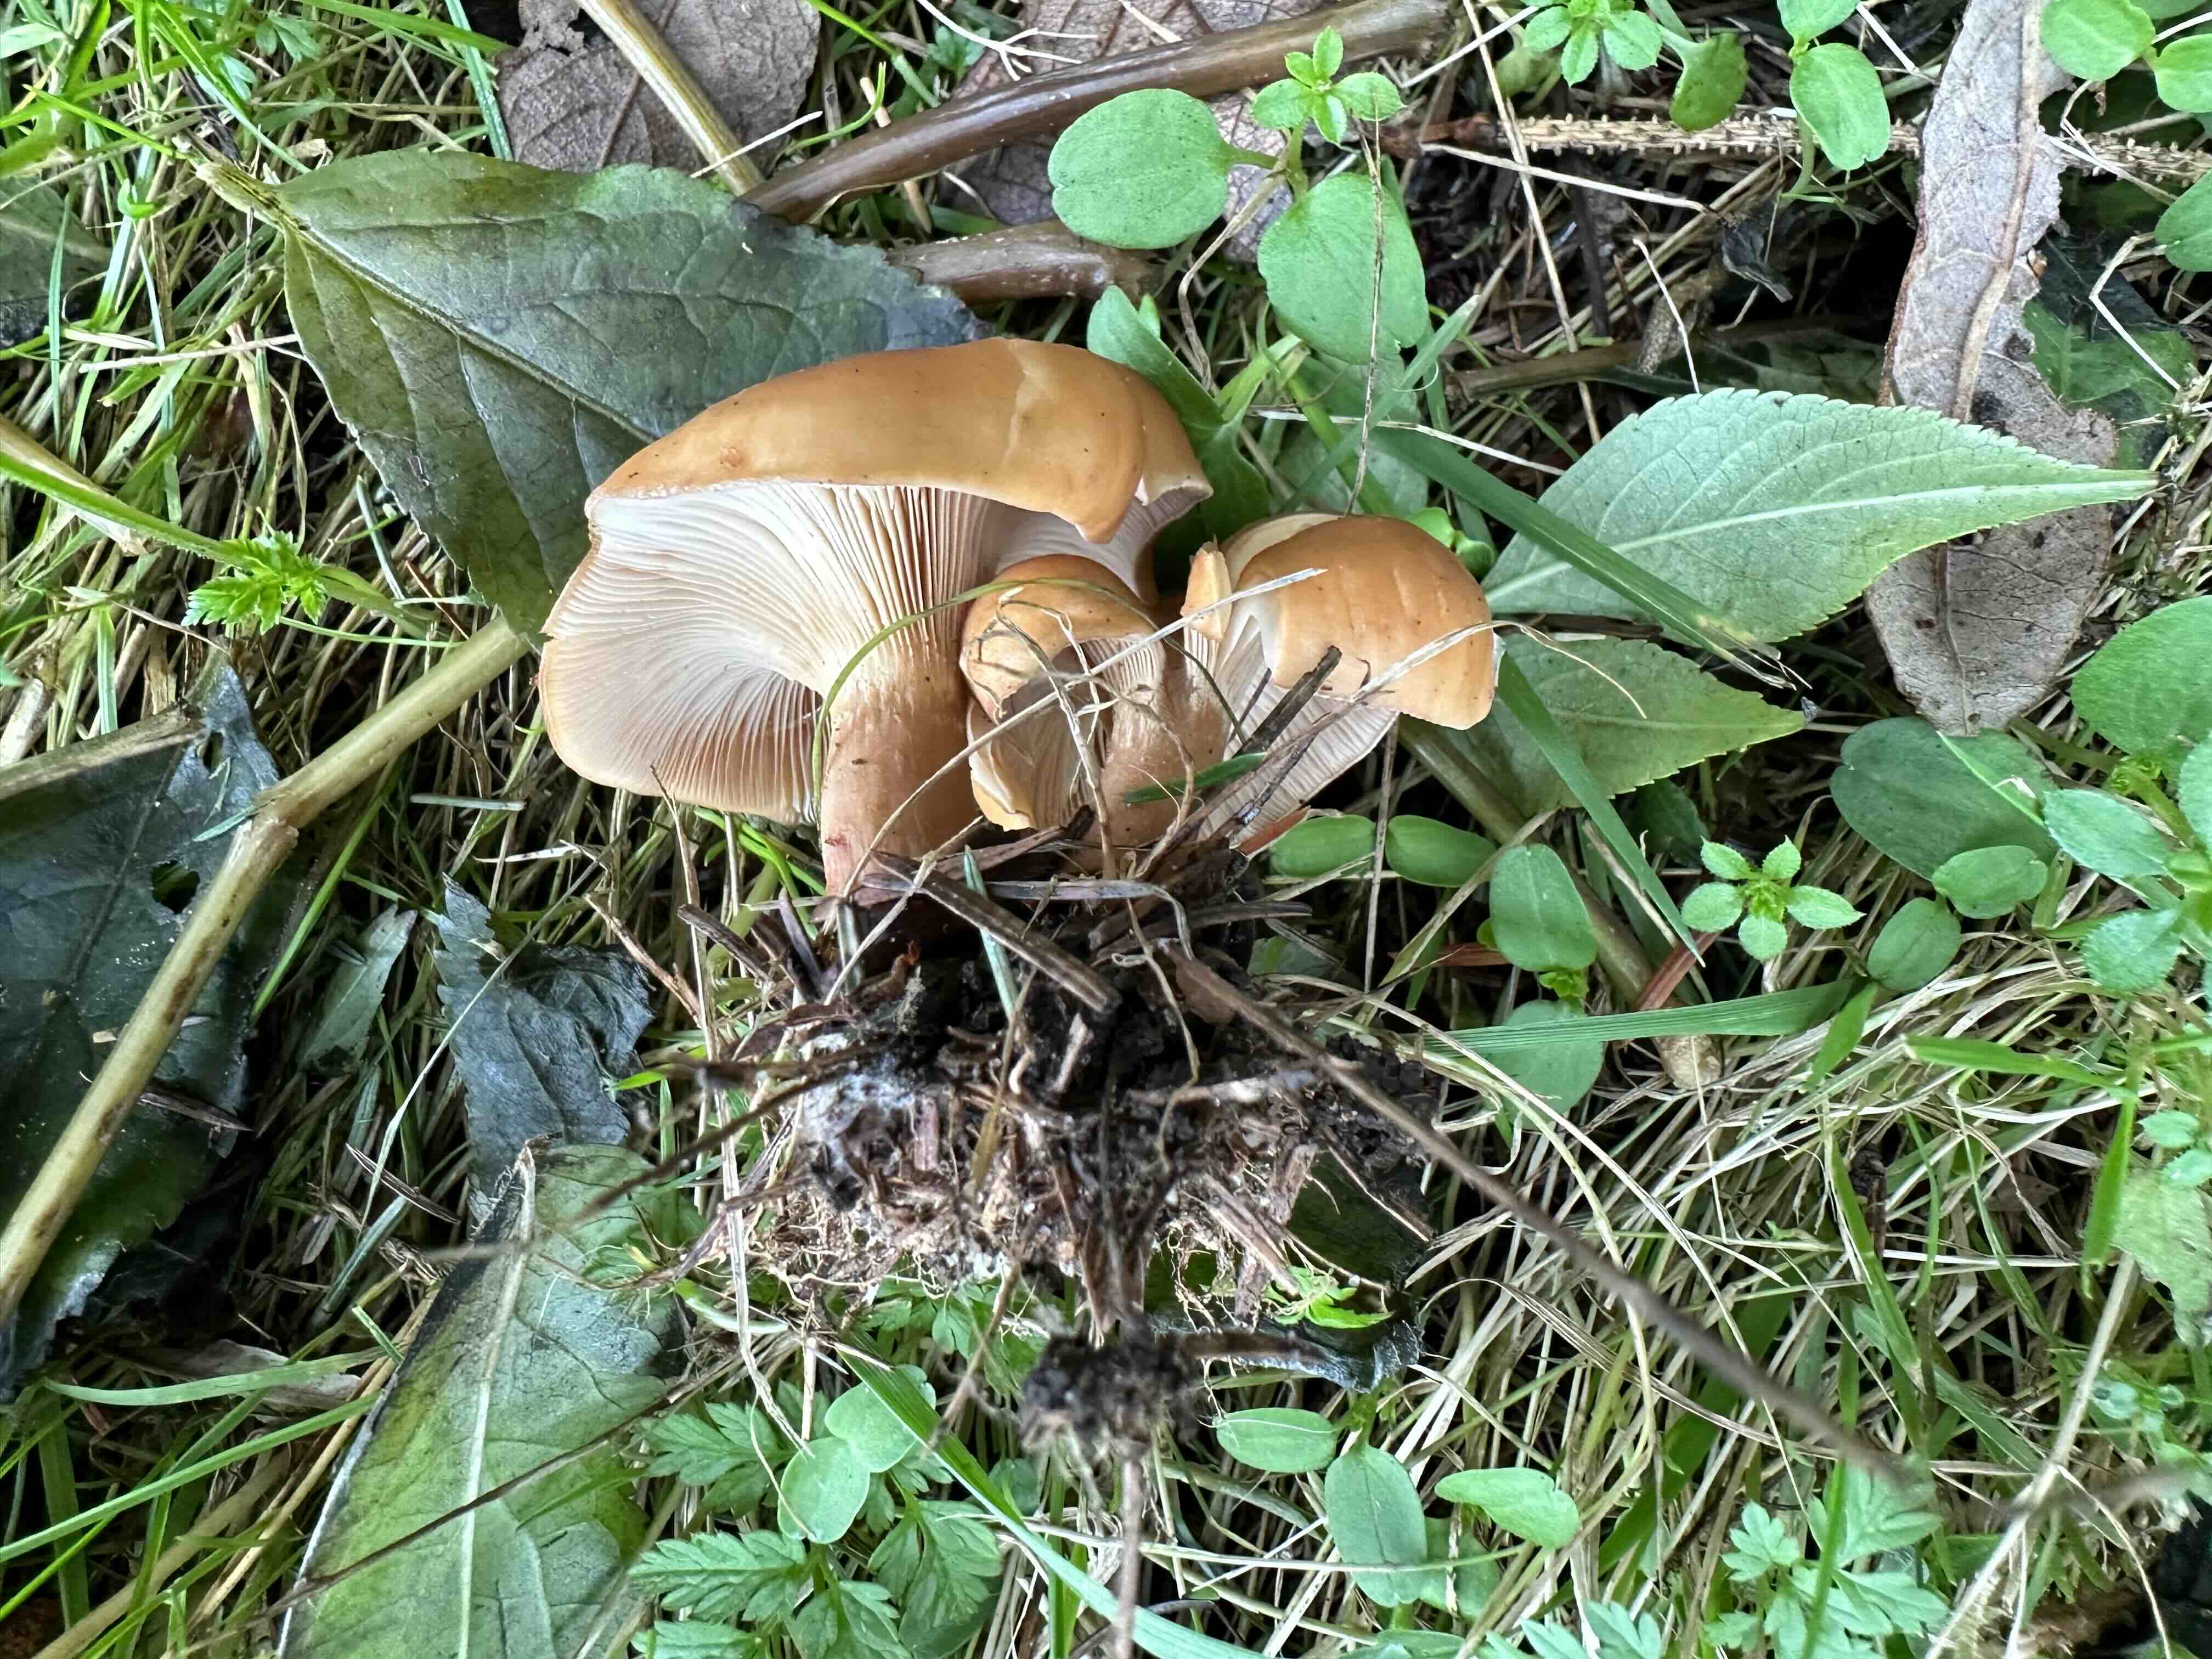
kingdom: Fungi
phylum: Basidiomycota
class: Agaricomycetes
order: Agaricales
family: Tricholomataceae
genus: Paralepista
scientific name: Paralepista flaccida
